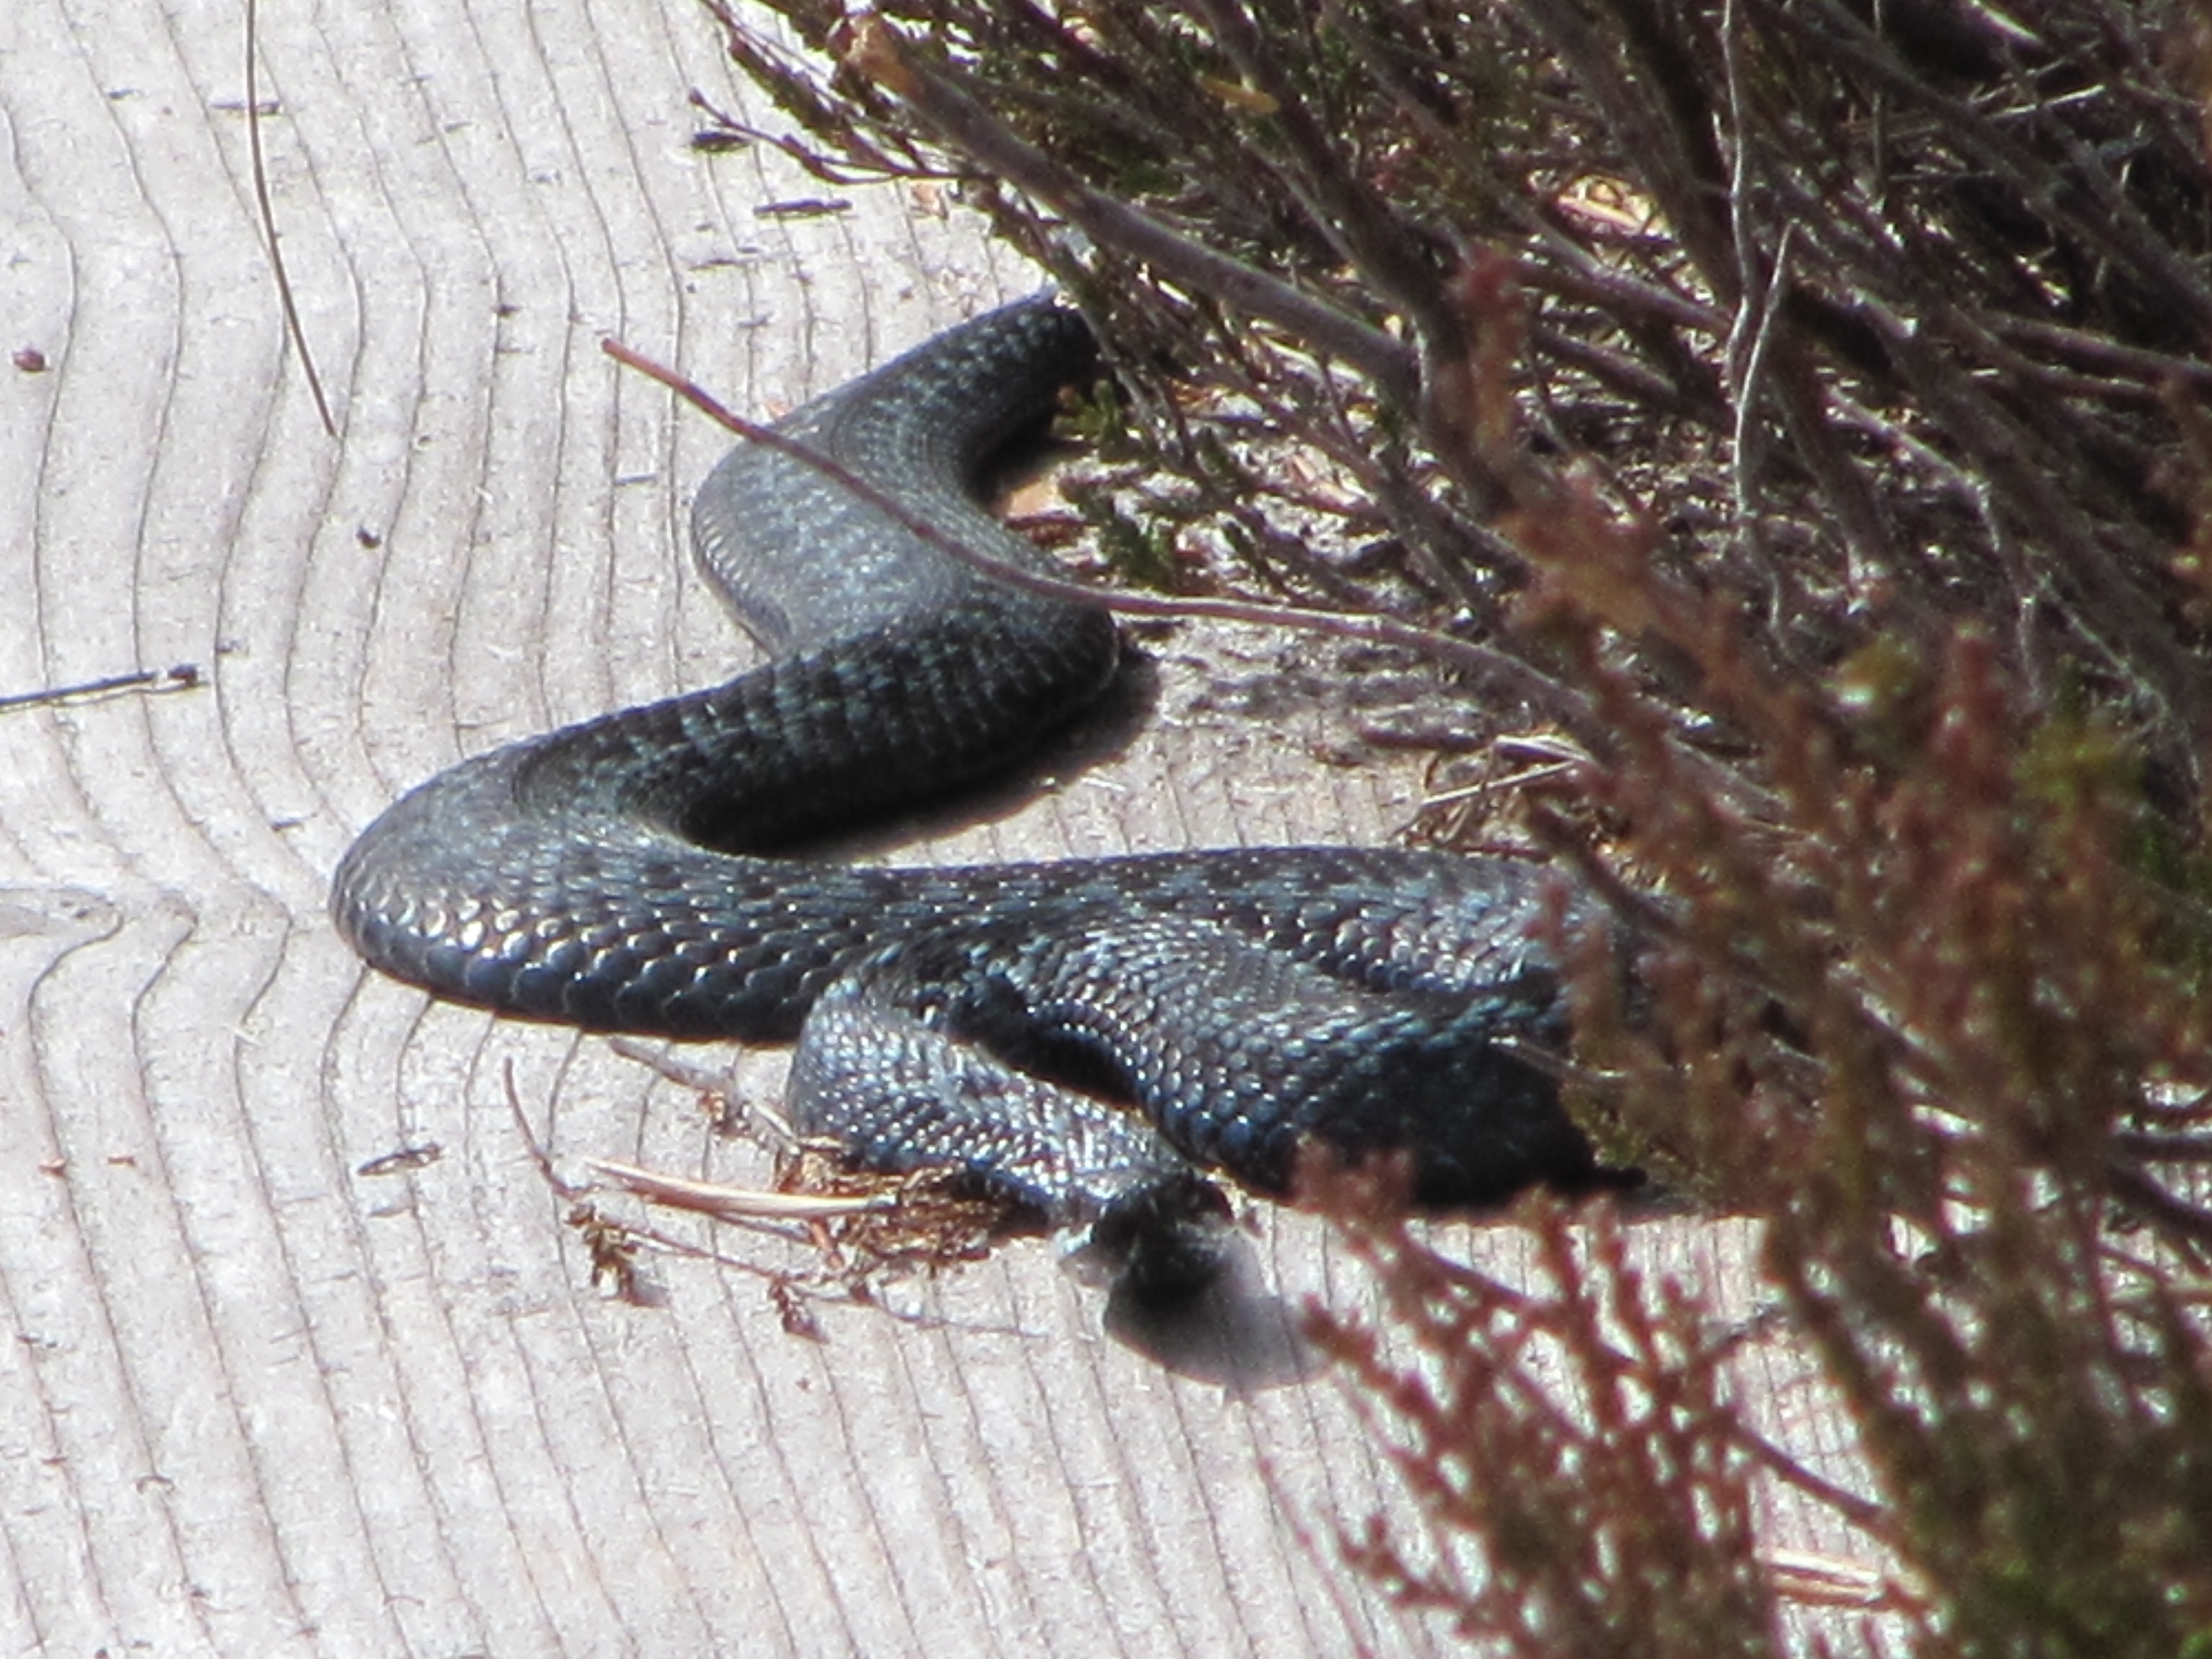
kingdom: Animalia
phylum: Chordata
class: Squamata
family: Viperidae
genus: Vipera
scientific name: Vipera berus
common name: Adder
